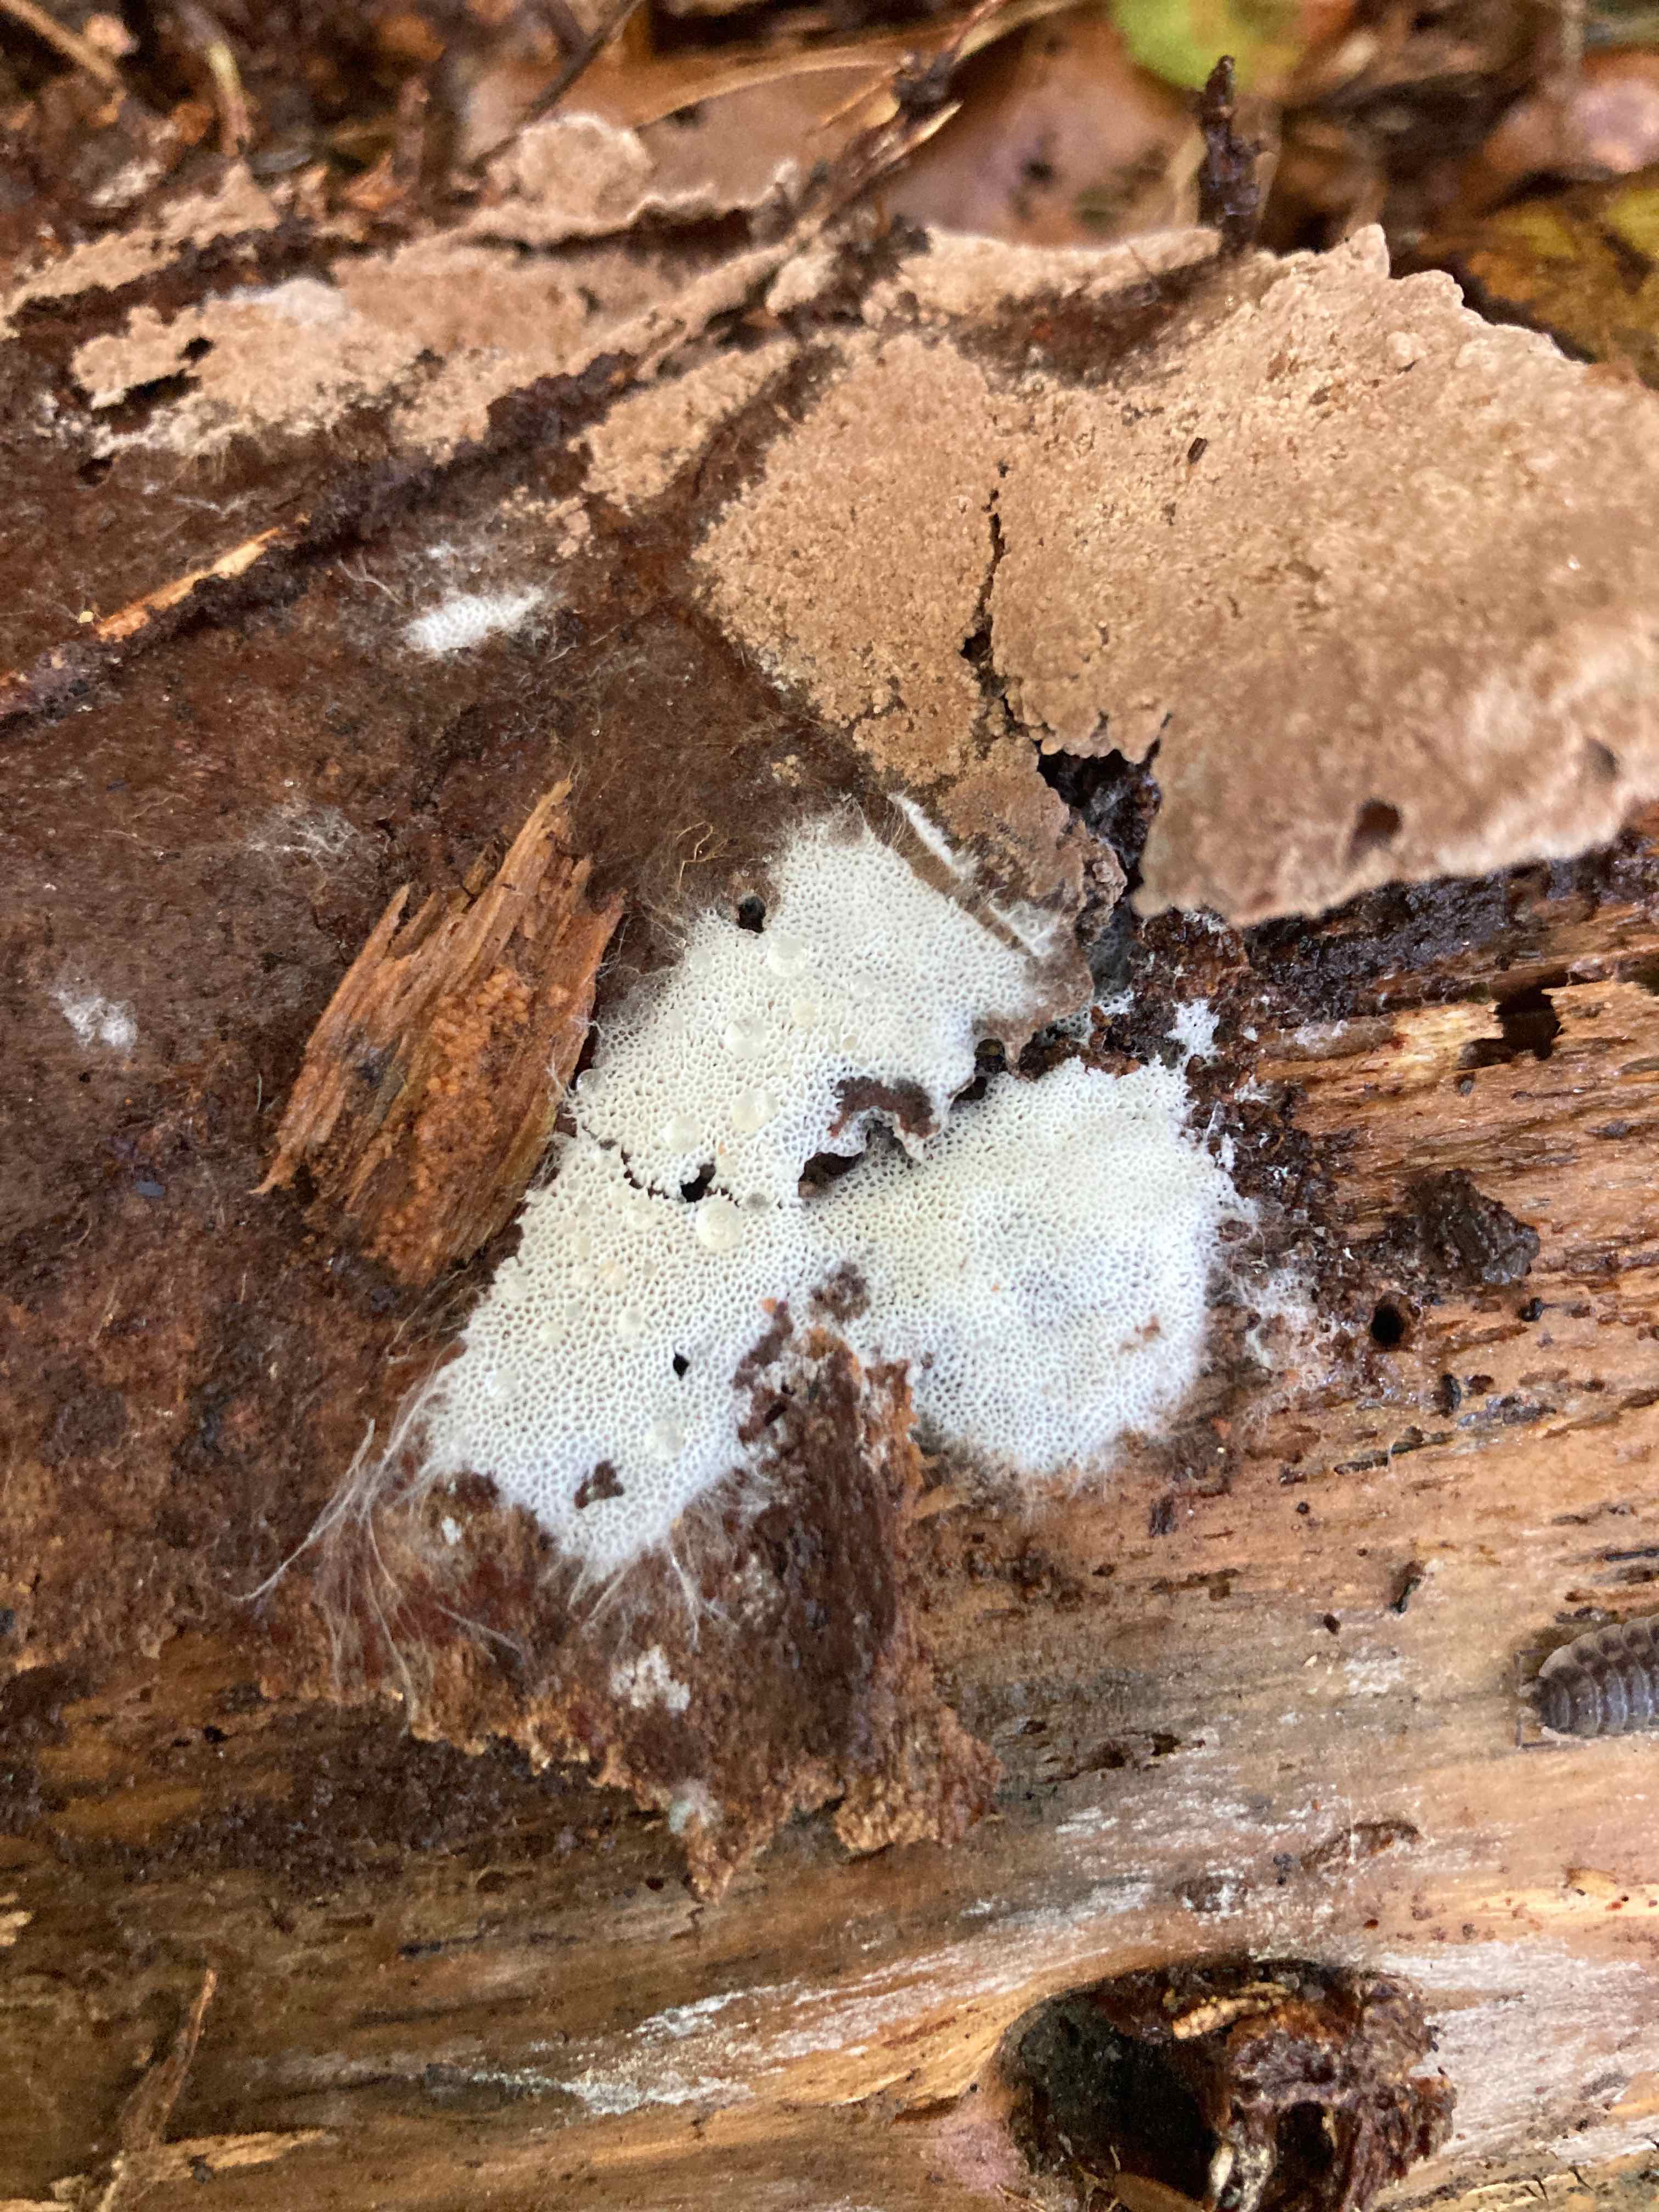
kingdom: Fungi
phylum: Basidiomycota
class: Agaricomycetes
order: Trechisporales
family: Sistotremataceae
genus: Trechispora
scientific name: Trechispora hymenocystis
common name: poret vathinde
